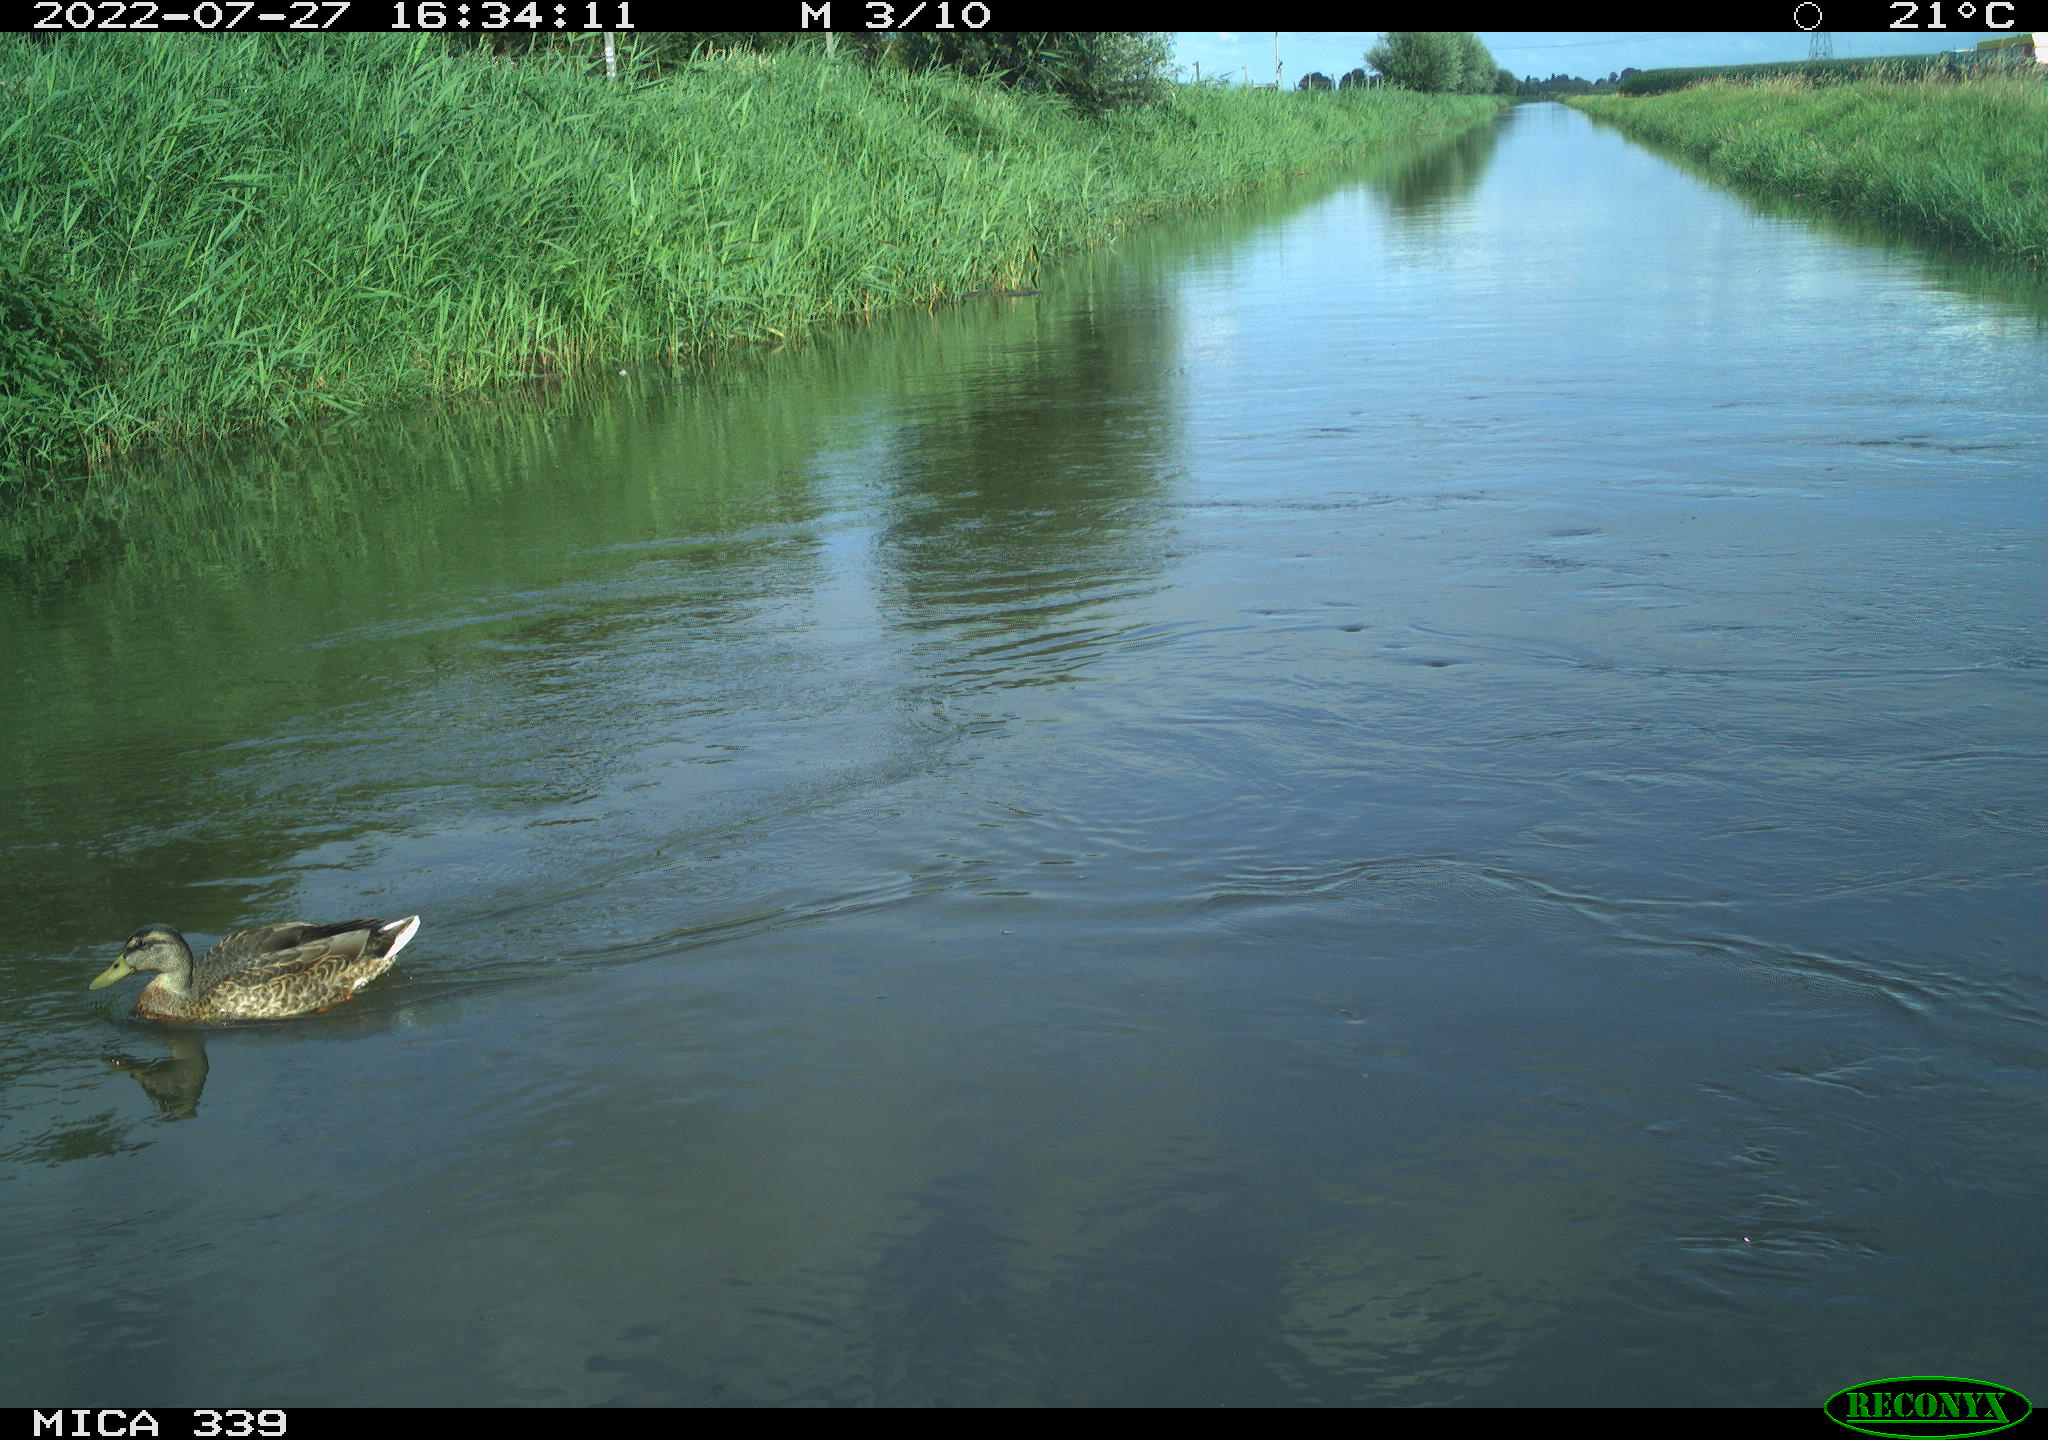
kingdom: Animalia
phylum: Chordata
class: Aves
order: Anseriformes
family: Anatidae
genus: Mareca
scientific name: Mareca strepera
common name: Gadwall
